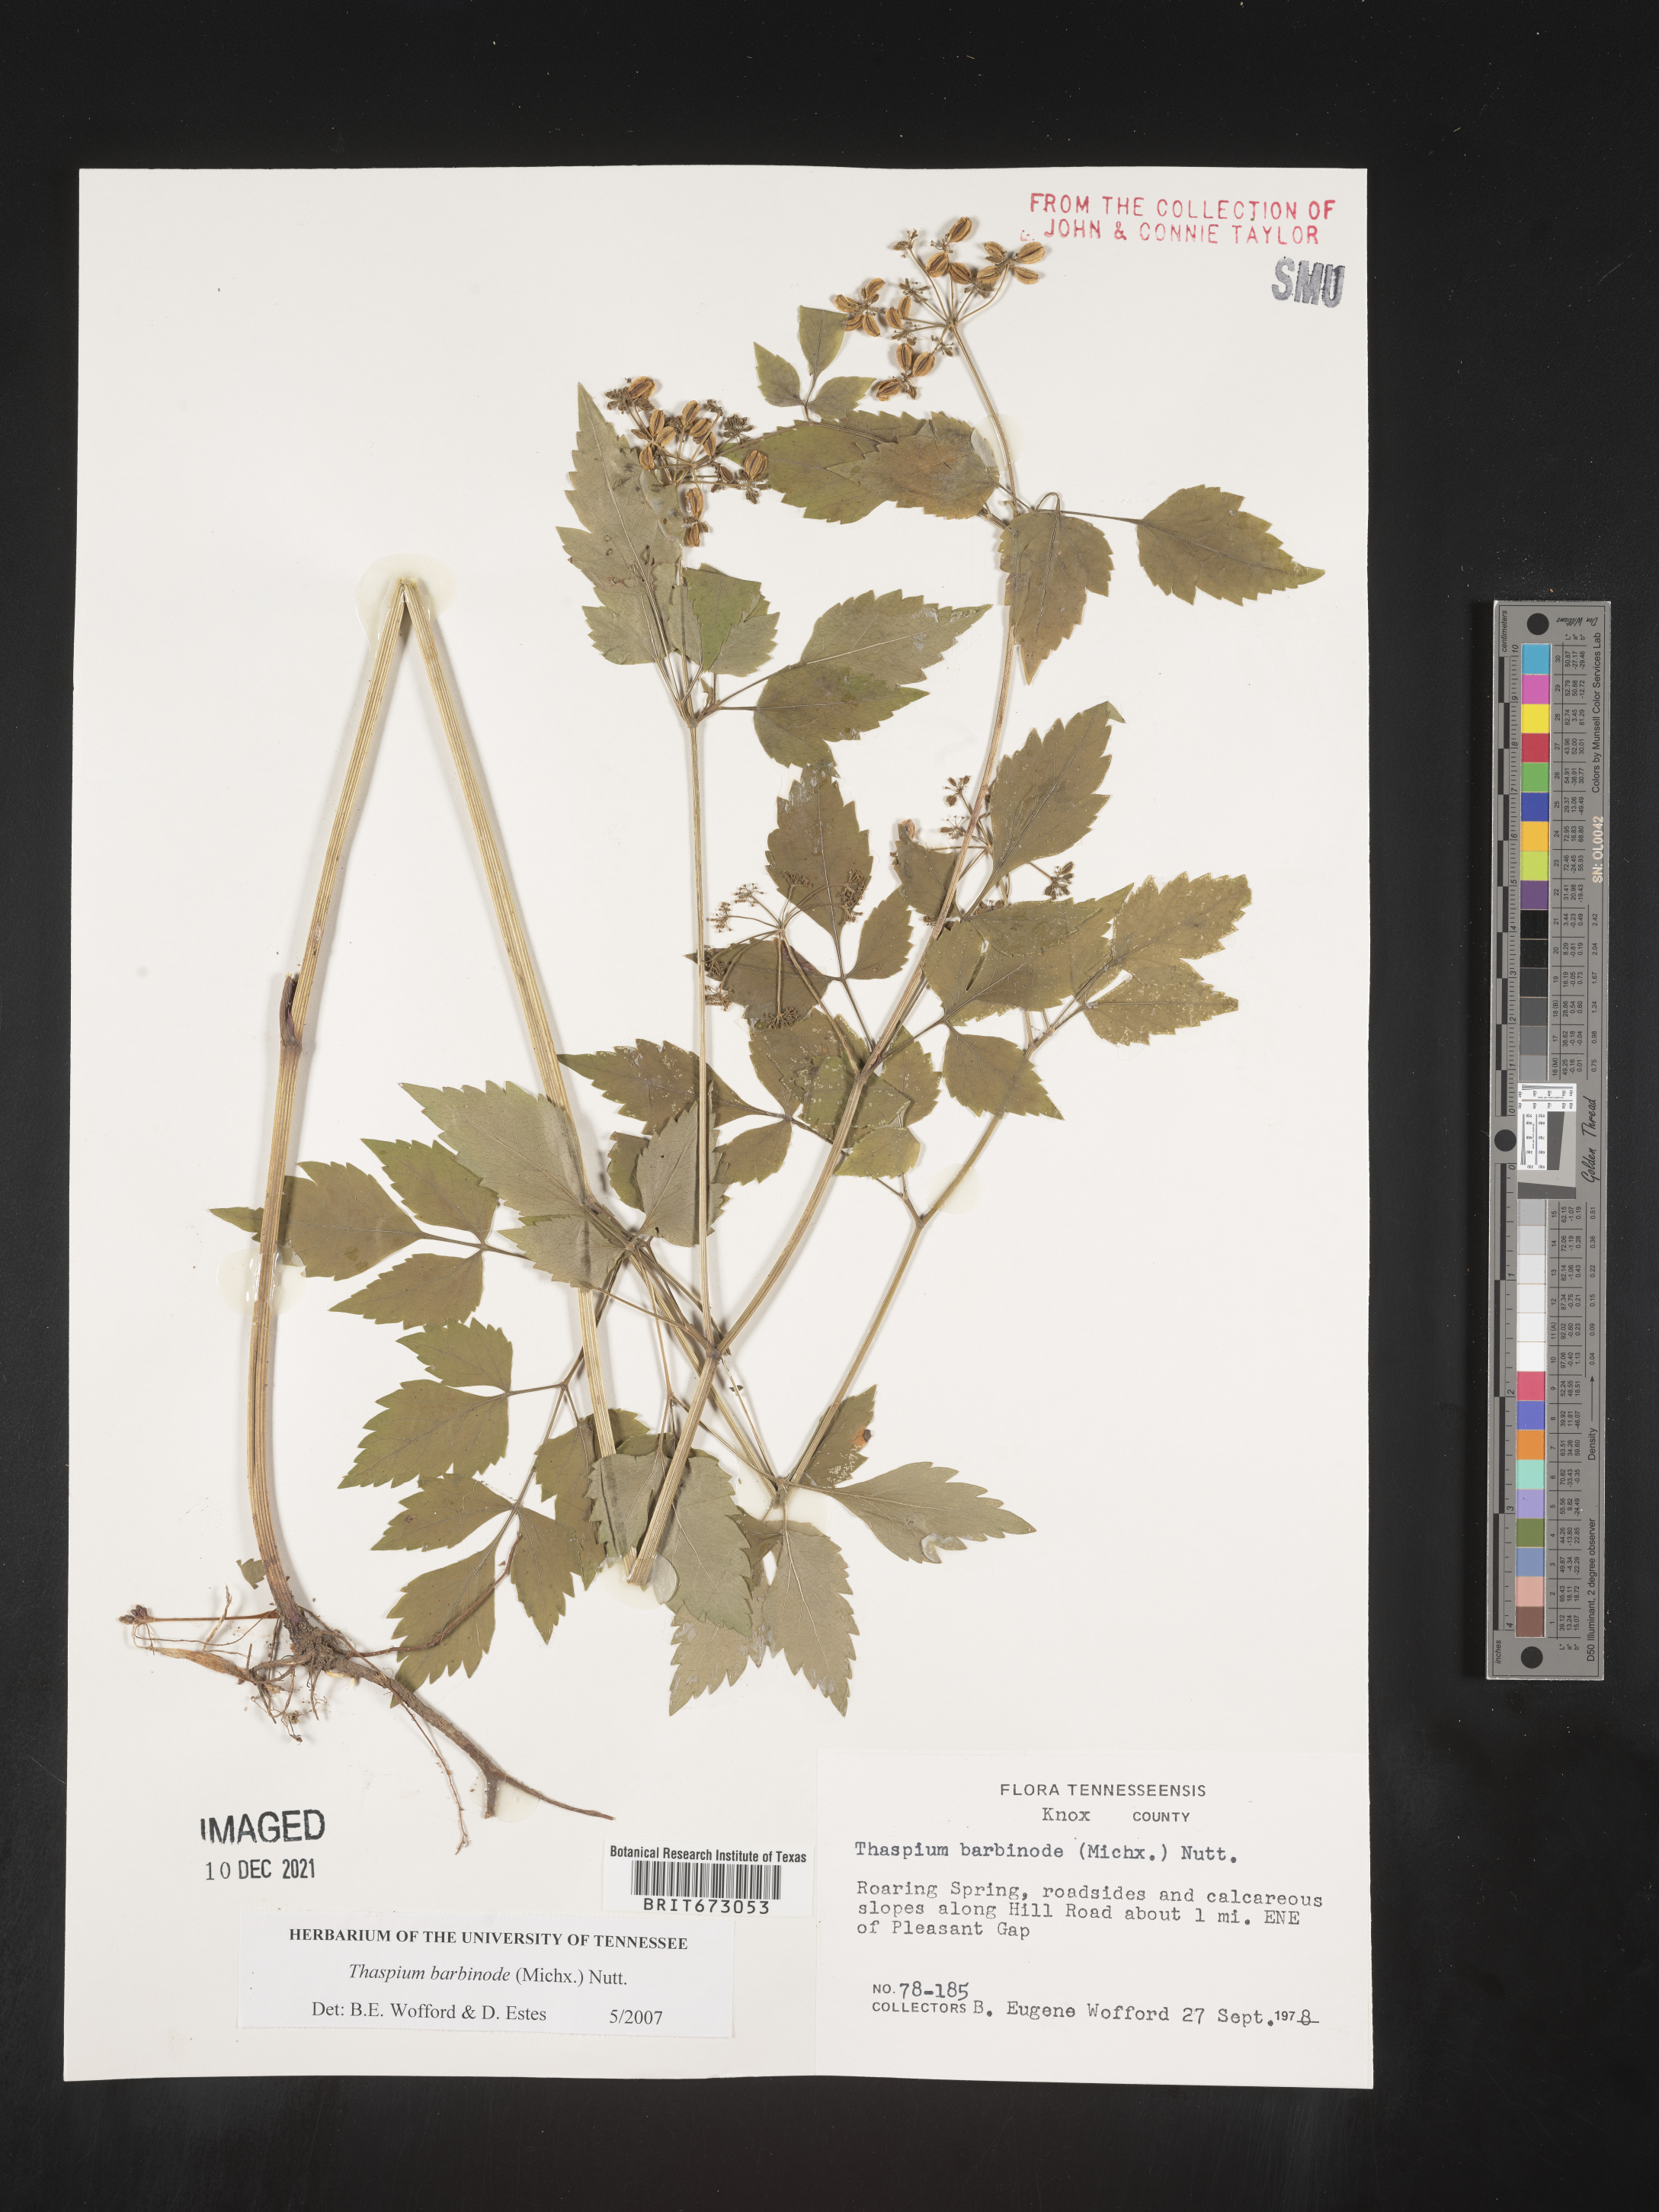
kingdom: Plantae
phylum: Tracheophyta
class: Magnoliopsida
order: Apiales
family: Apiaceae
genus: Thaspium
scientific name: Thaspium barbinode
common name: Bearded meadow-parsnip
